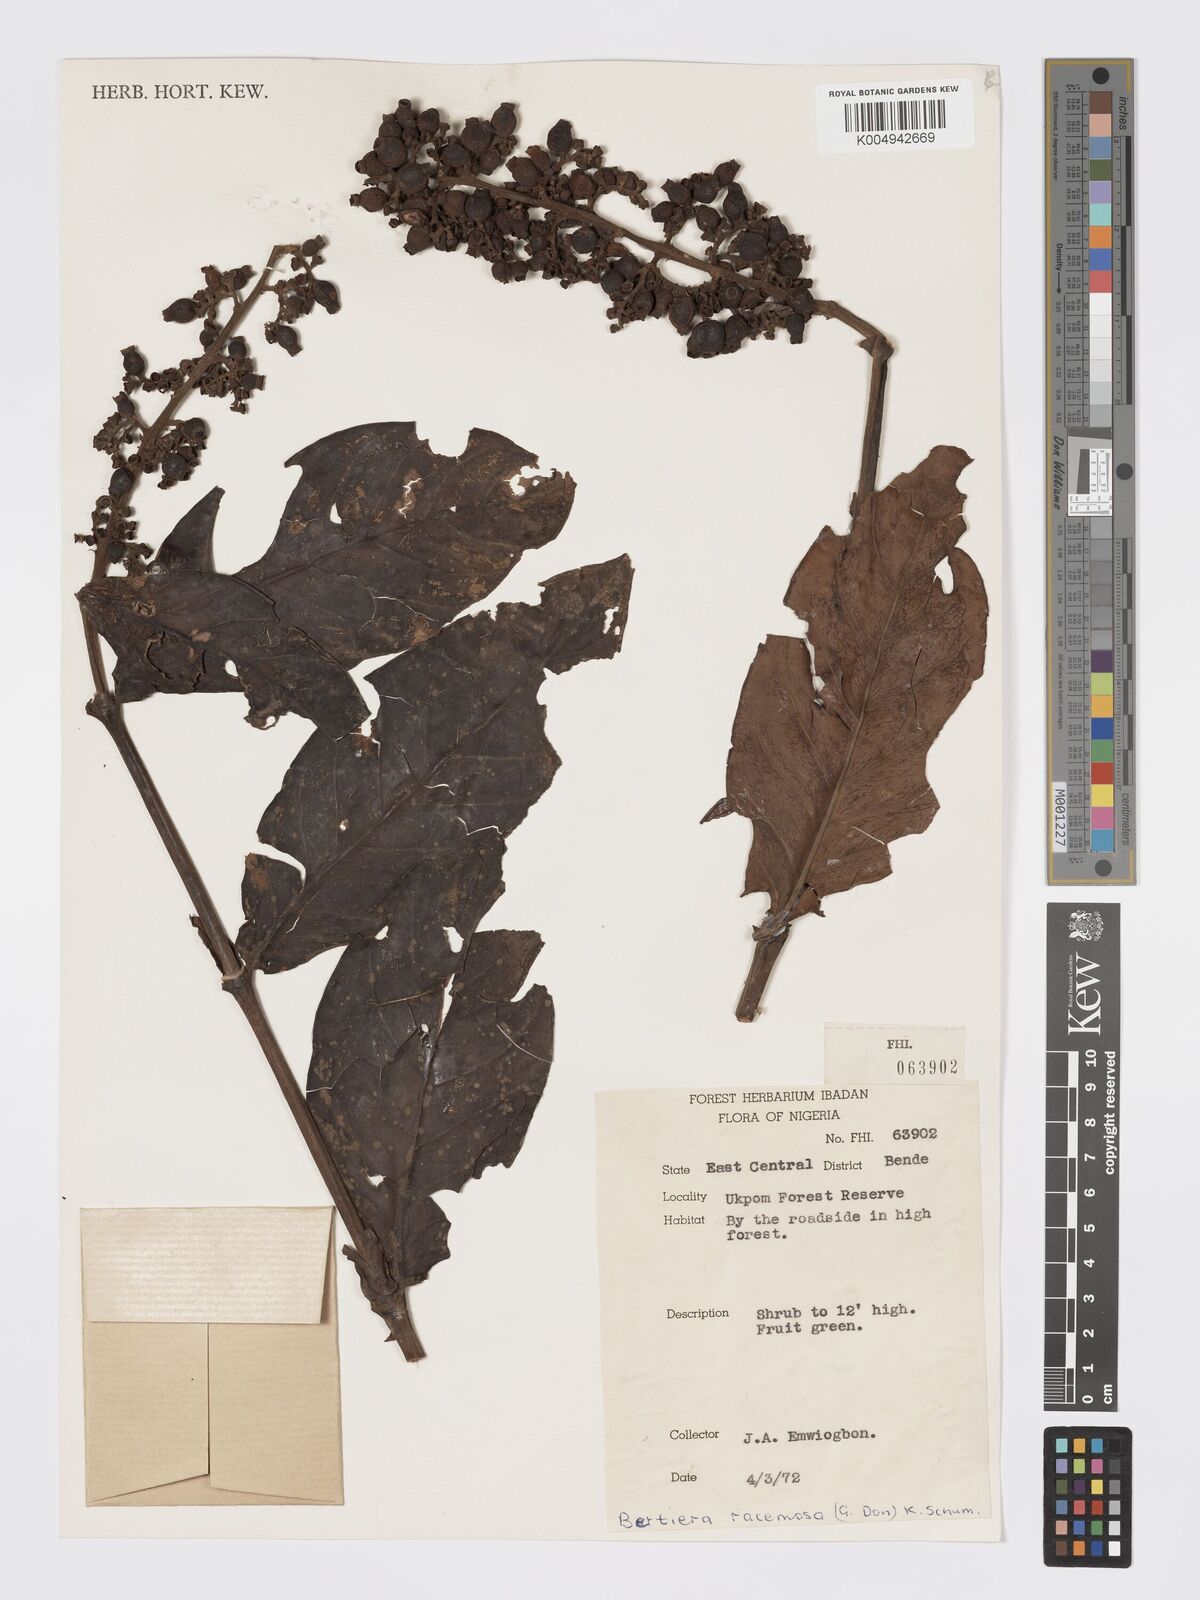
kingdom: Plantae
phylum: Tracheophyta
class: Magnoliopsida
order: Gentianales
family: Rubiaceae
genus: Bertiera
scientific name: Bertiera racemosa
